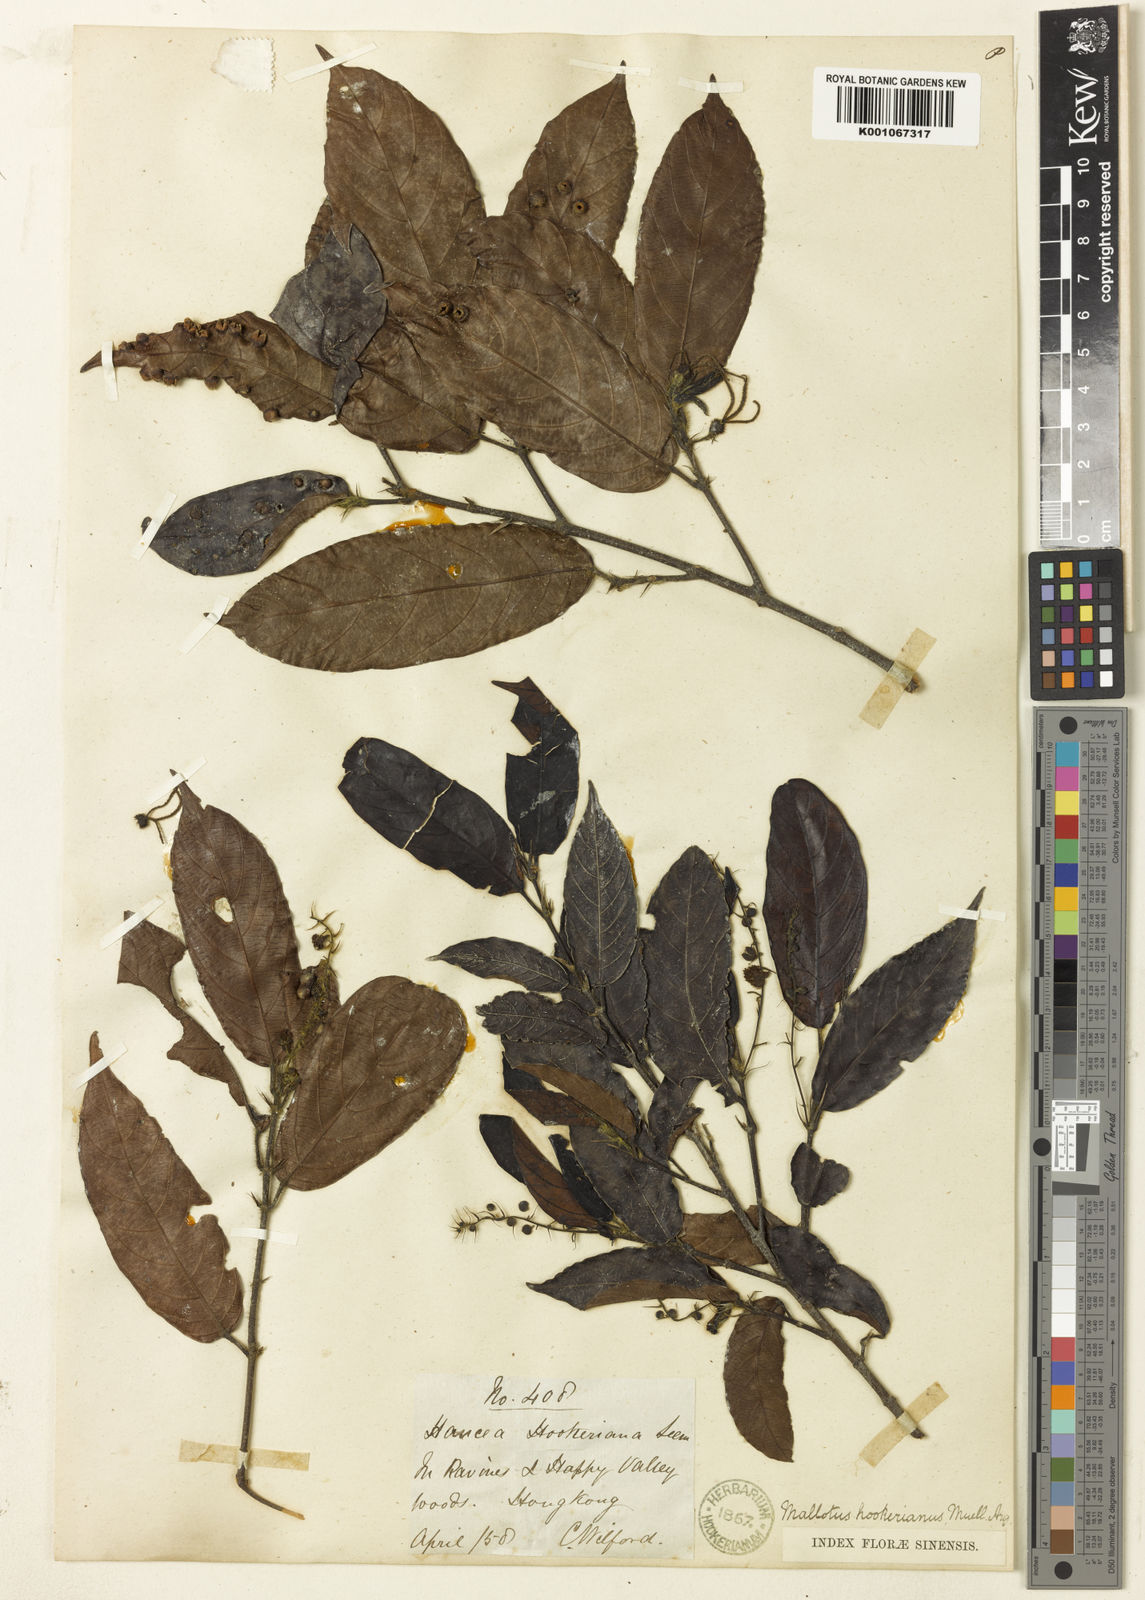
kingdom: Plantae
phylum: Tracheophyta
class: Magnoliopsida
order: Malpighiales
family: Euphorbiaceae
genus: Hancea
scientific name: Hancea hookeriana
